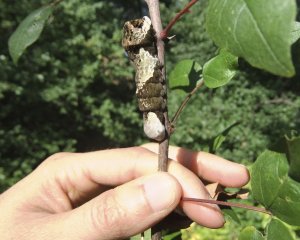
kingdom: Animalia
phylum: Arthropoda
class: Insecta
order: Lepidoptera
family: Papilionidae
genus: Papilio
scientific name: Papilio cresphontes
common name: Eastern Giant Swallowtail
